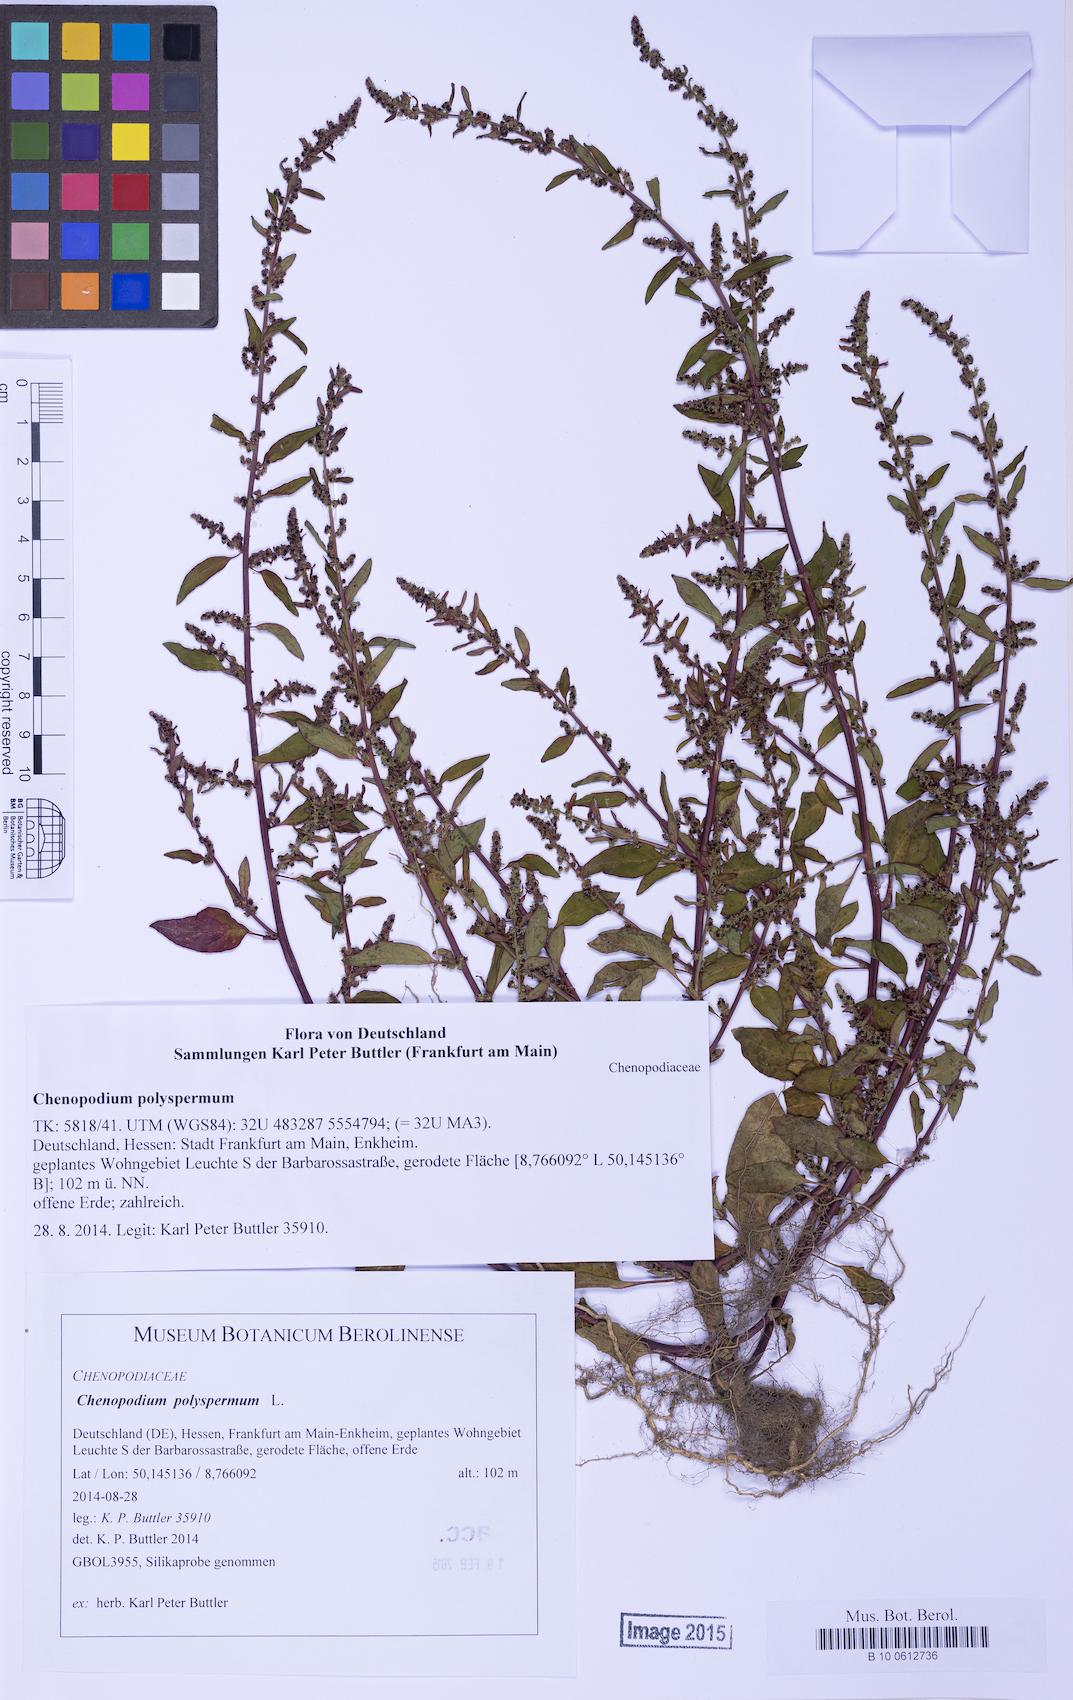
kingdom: Plantae
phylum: Tracheophyta
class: Magnoliopsida
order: Caryophyllales
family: Amaranthaceae
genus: Lipandra
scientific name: Lipandra polysperma
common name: Many-seed goosefoot
